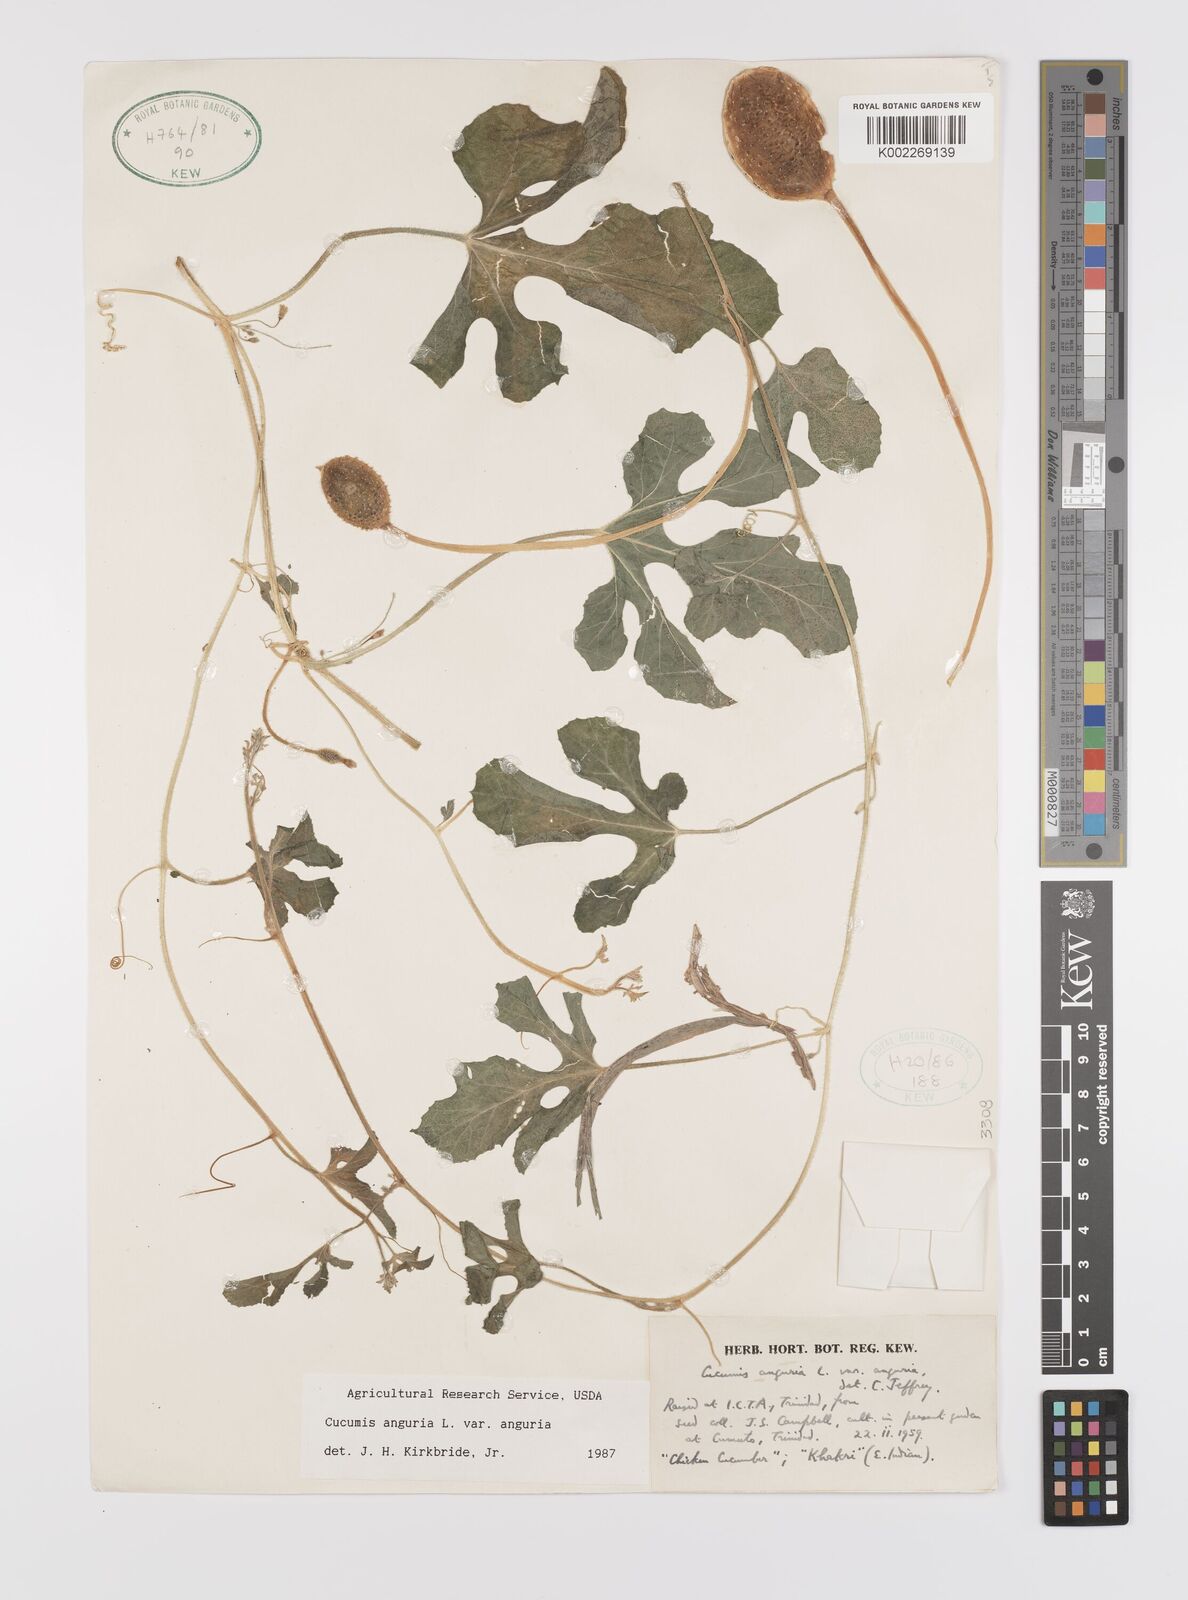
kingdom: Plantae
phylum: Tracheophyta
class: Magnoliopsida
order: Cucurbitales
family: Cucurbitaceae
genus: Cucumis
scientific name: Cucumis anguria
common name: West indian gherkin
